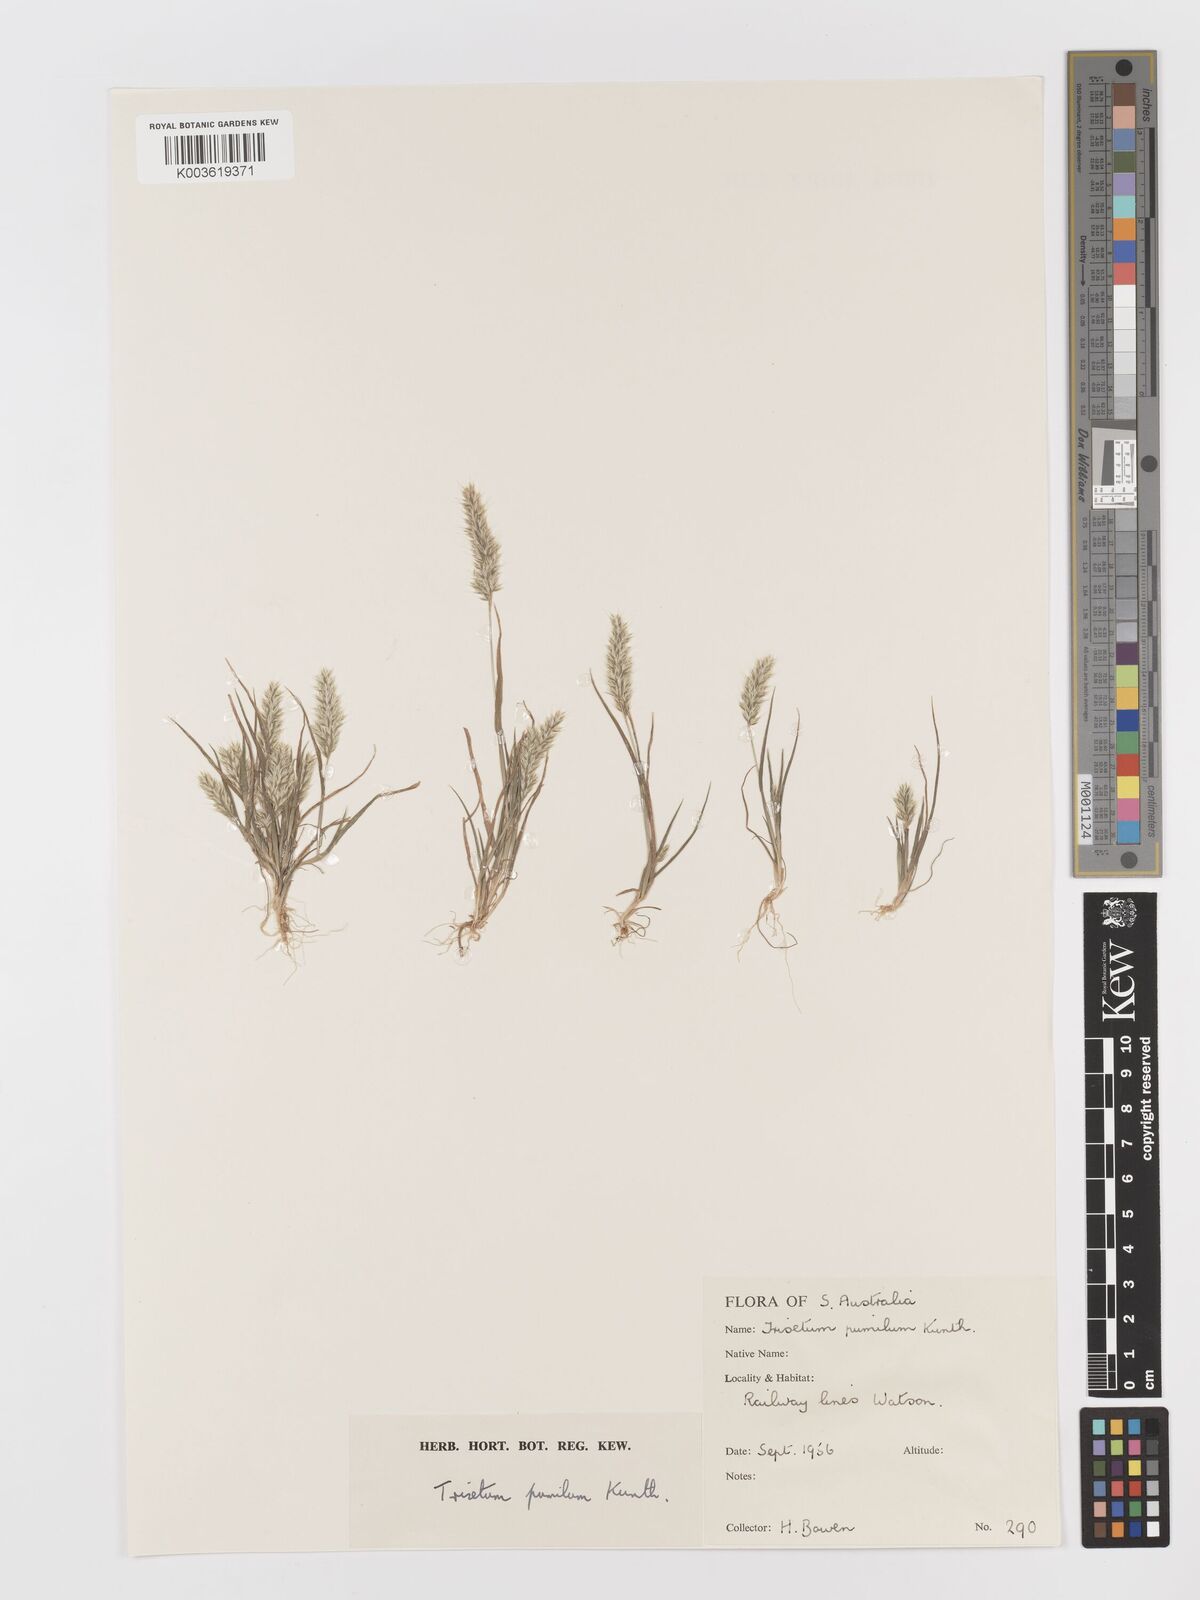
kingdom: Plantae
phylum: Tracheophyta
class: Liliopsida
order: Poales
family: Poaceae
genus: Rostraria
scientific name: Rostraria pumila
